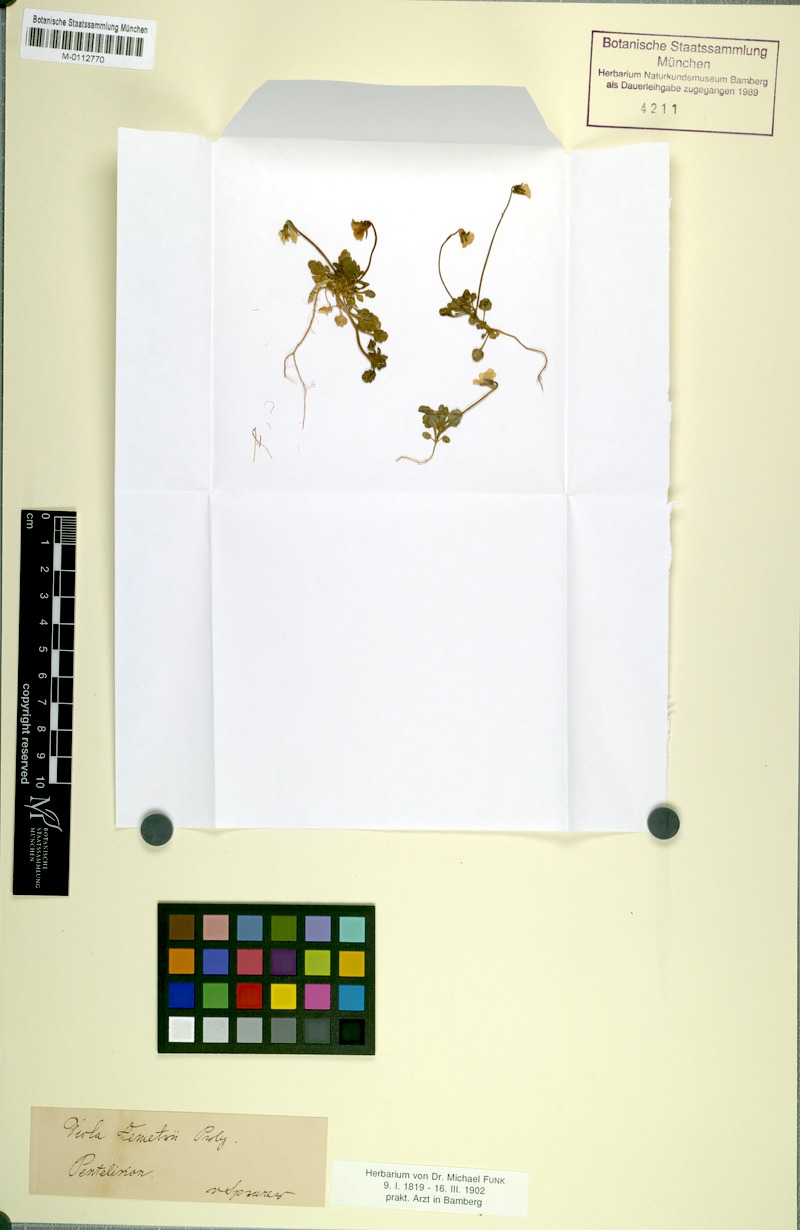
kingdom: Plantae
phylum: Tracheophyta
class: Magnoliopsida
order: Malpighiales
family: Violaceae
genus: Viola
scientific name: Viola demetria
